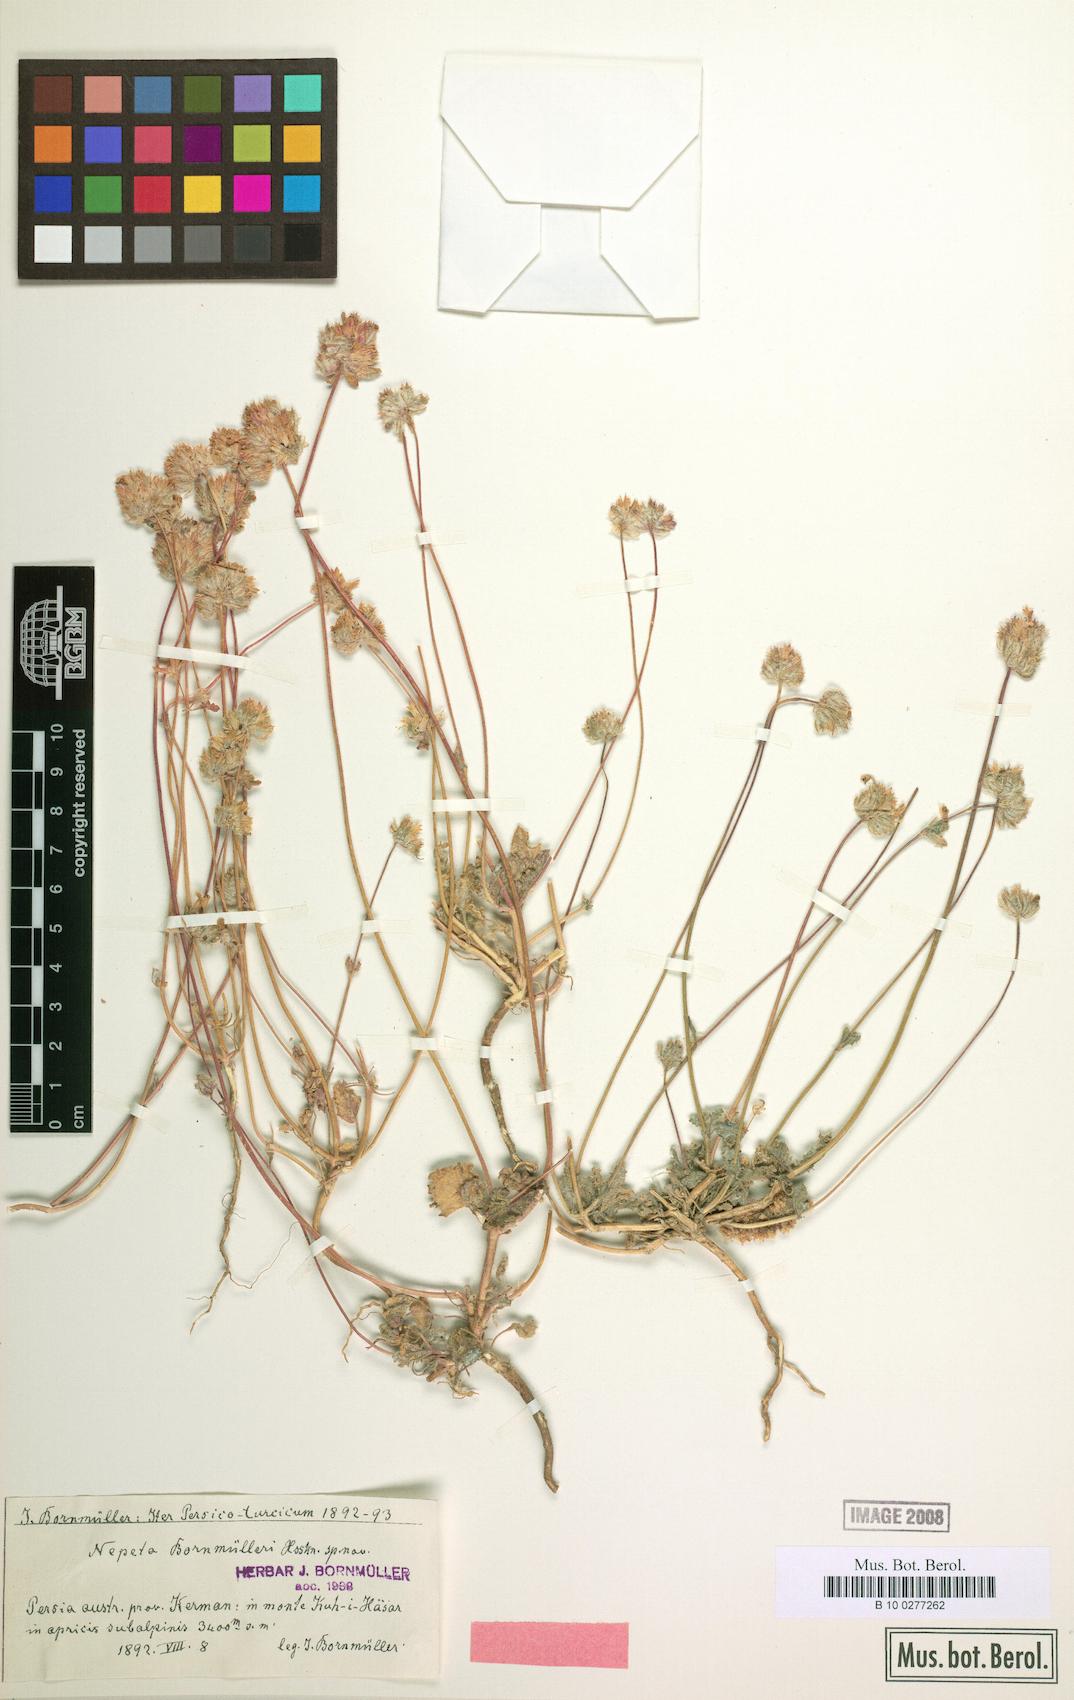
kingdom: Plantae
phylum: Tracheophyta
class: Magnoliopsida
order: Lamiales
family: Lamiaceae
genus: Nepeta
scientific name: Nepeta bornmuelleri
